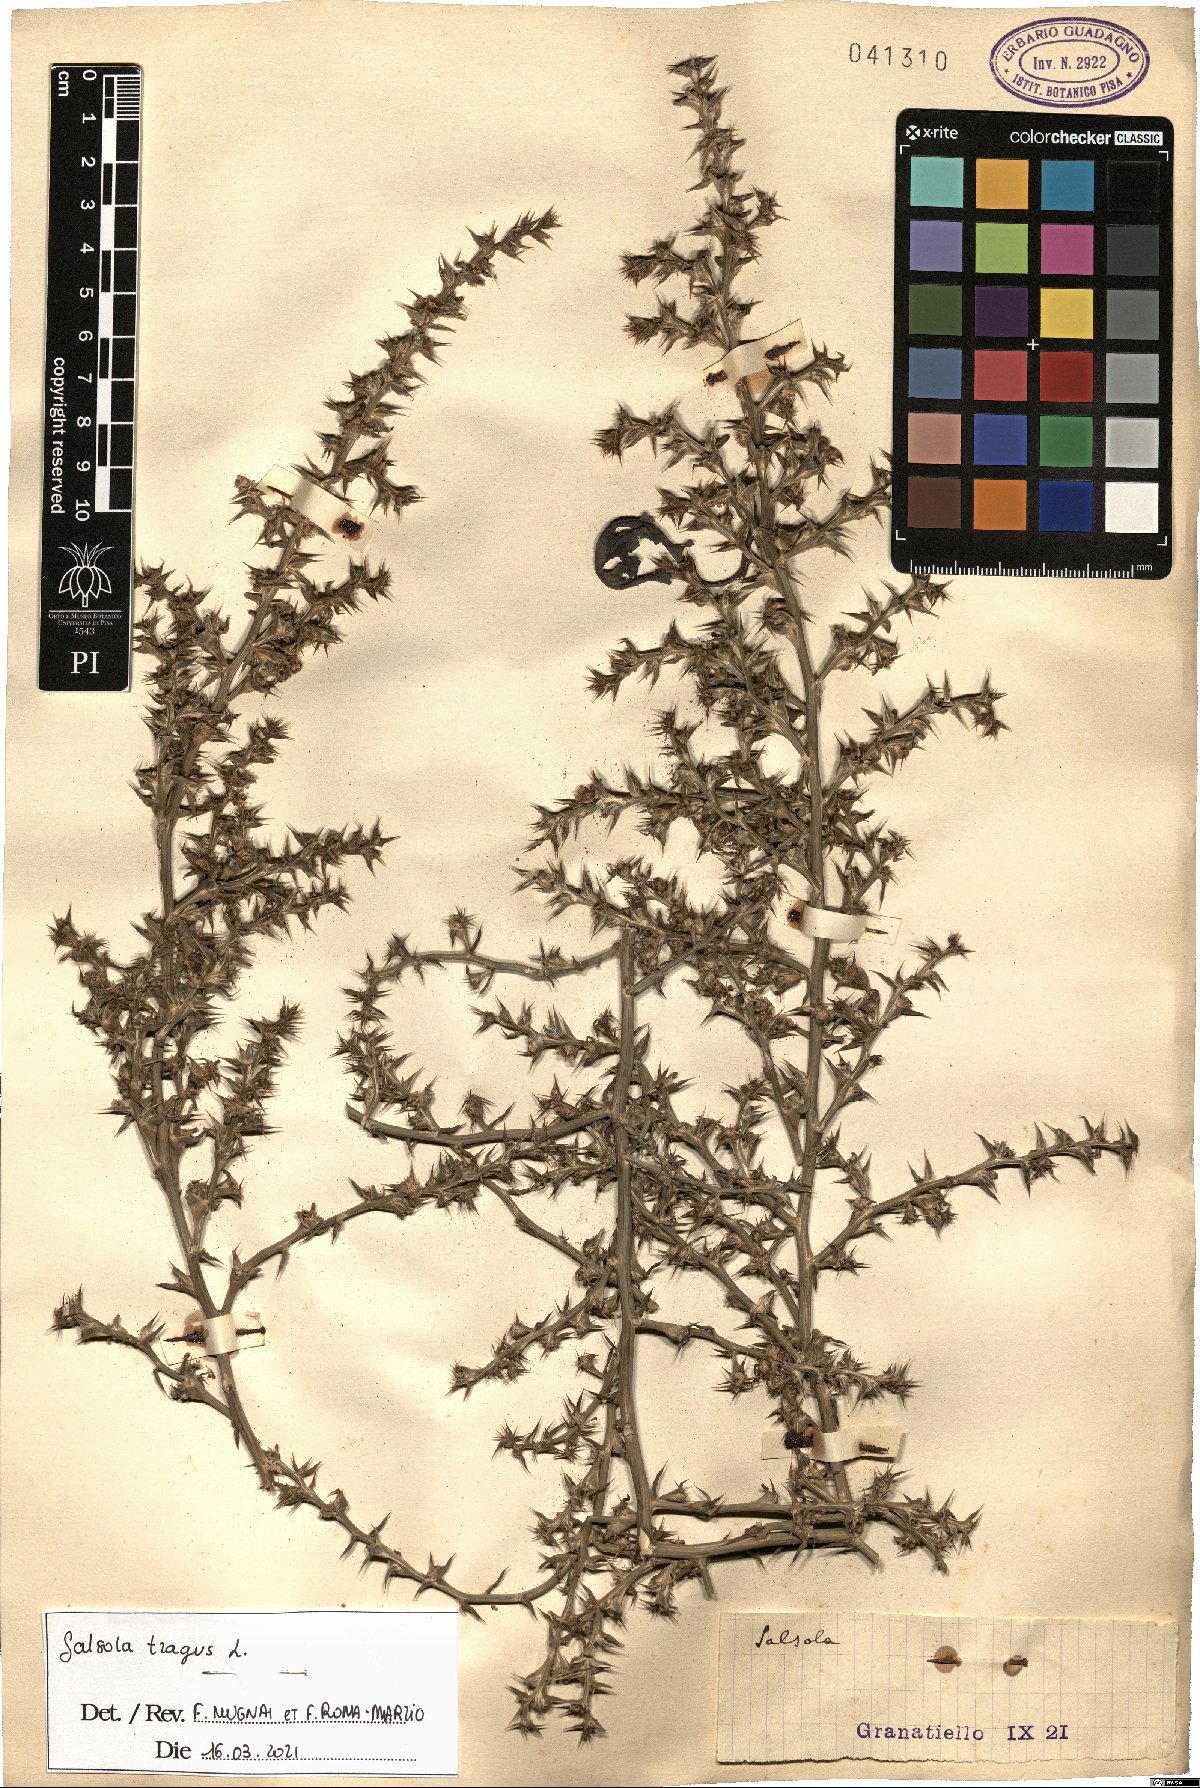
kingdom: Plantae
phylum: Tracheophyta
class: Magnoliopsida
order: Caryophyllales
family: Amaranthaceae
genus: Salsola
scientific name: Salsola tragus
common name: Prickly russian thistle
